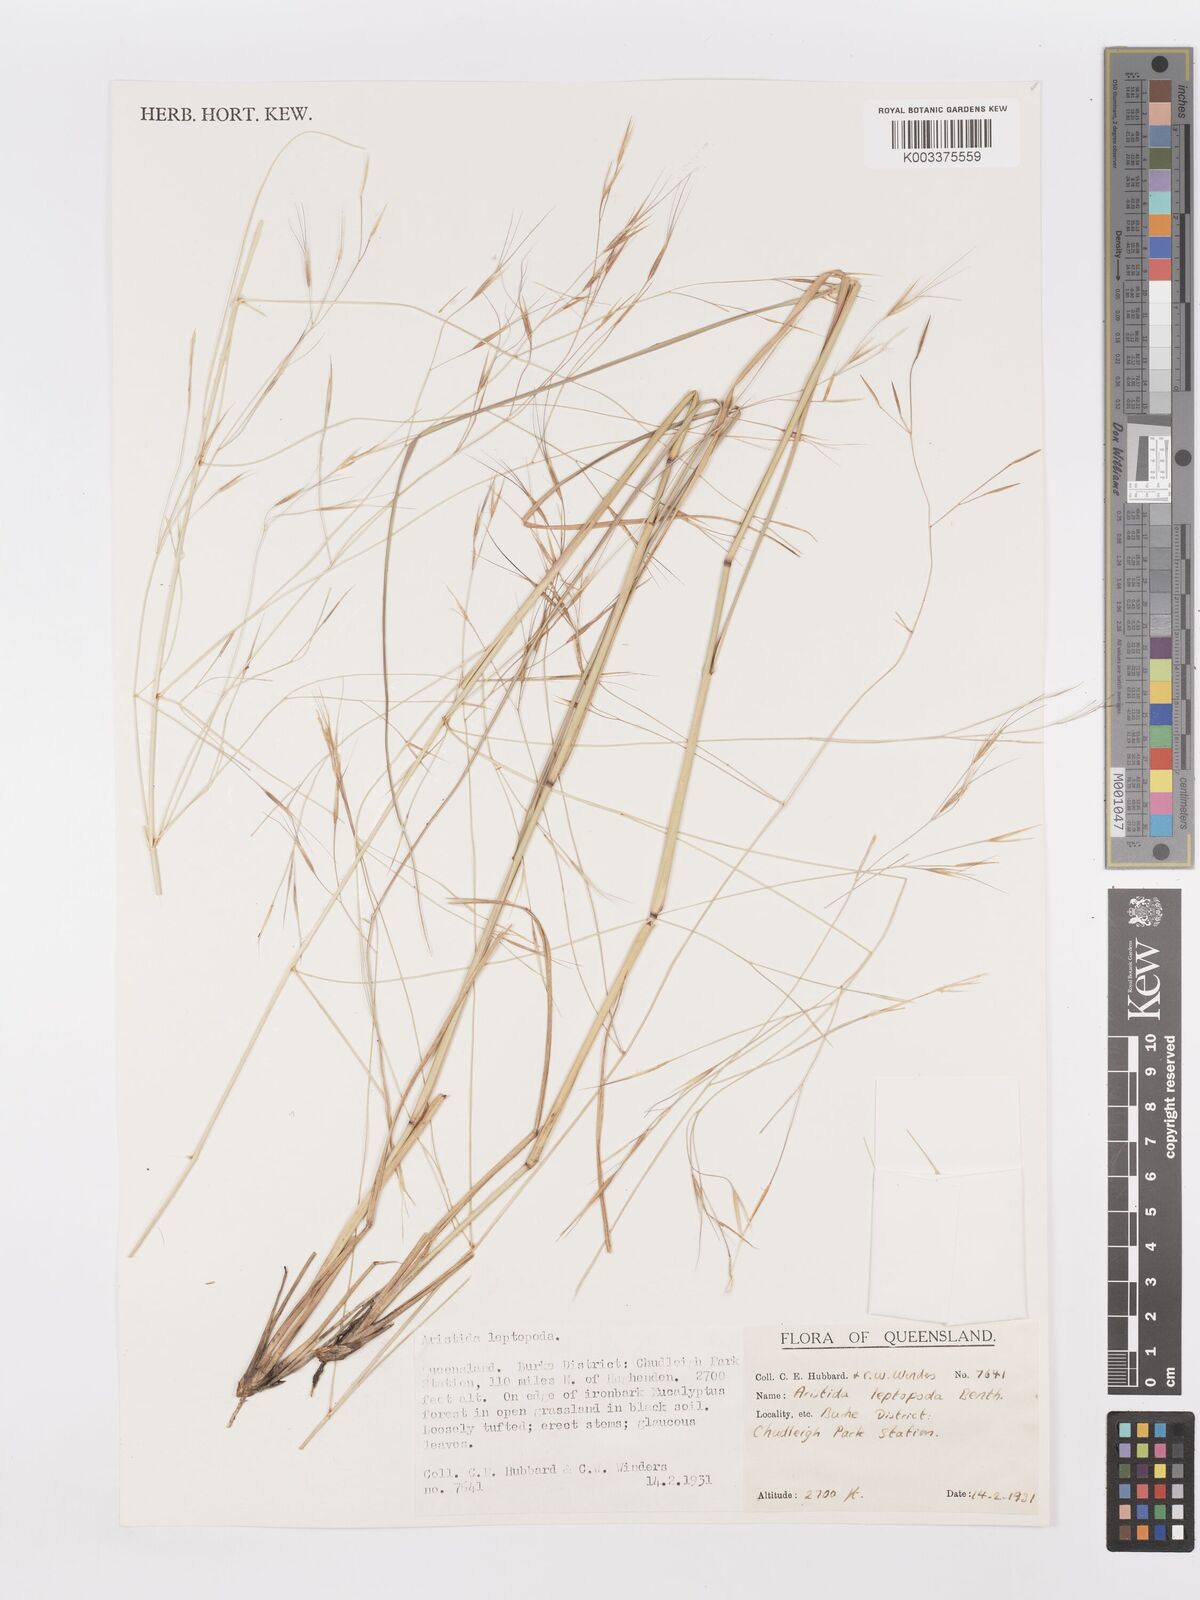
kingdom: Plantae
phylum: Tracheophyta
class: Liliopsida
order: Poales
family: Poaceae
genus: Aristida
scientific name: Aristida leptopoda
